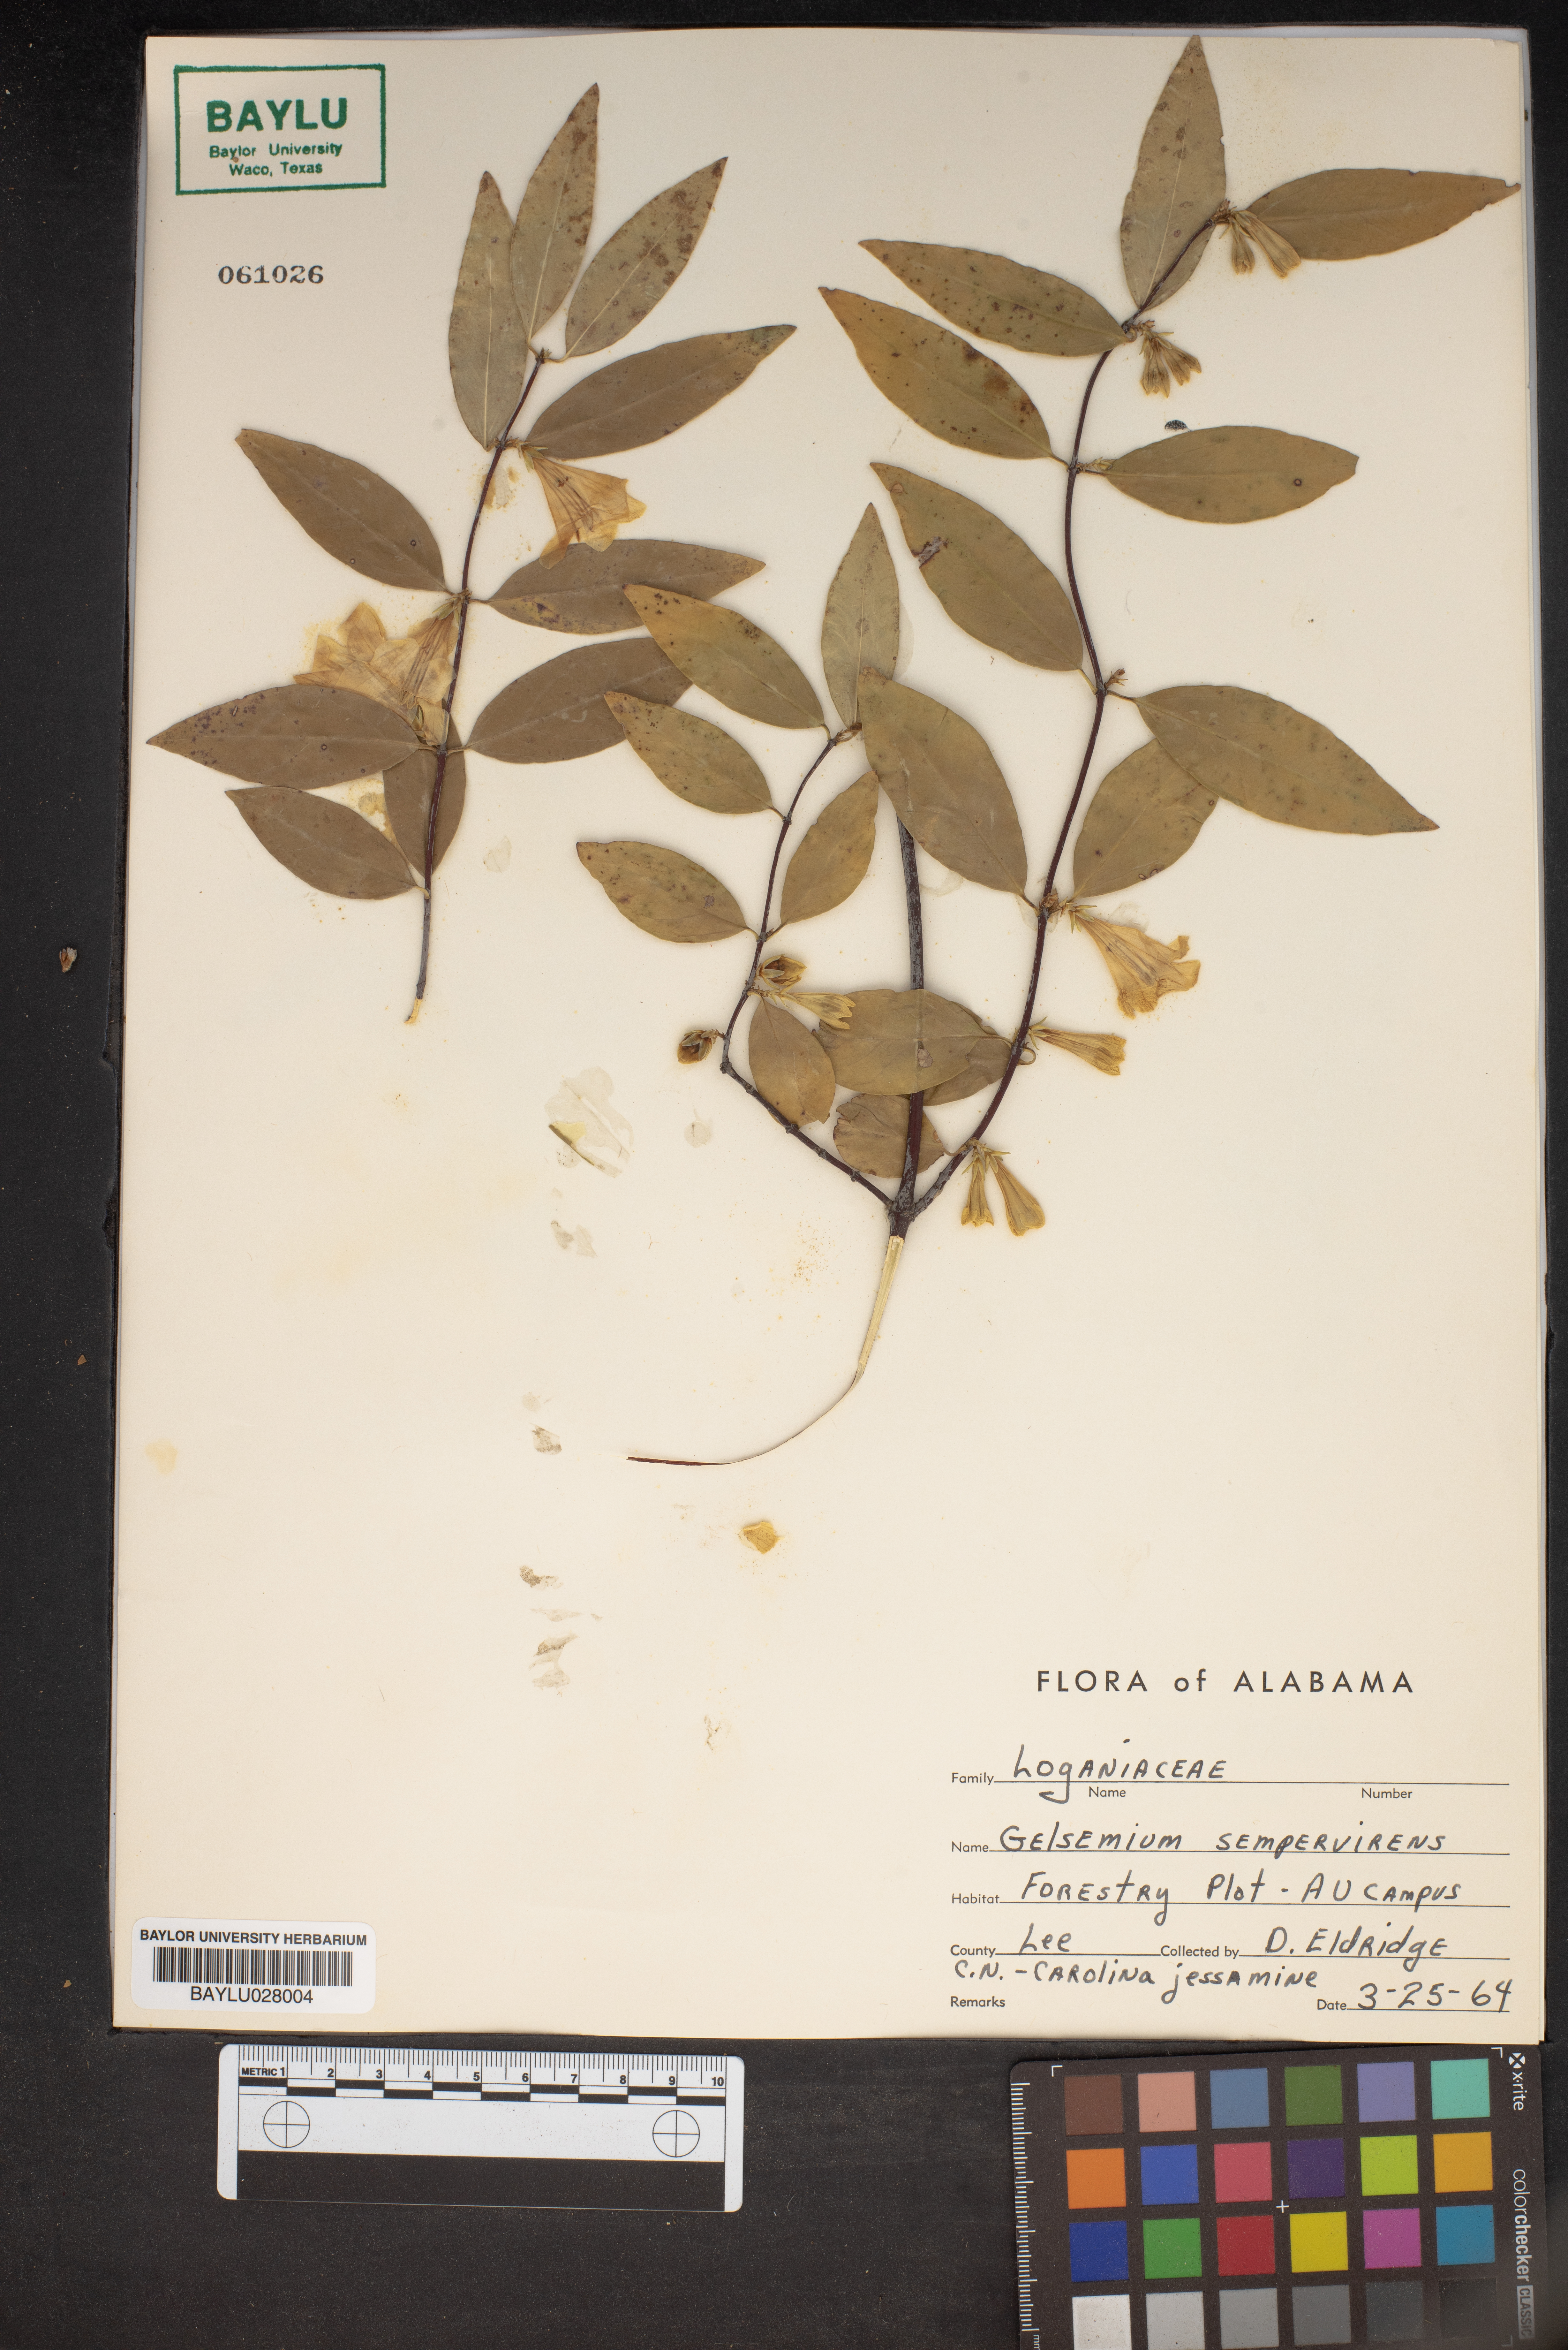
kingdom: Plantae
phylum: Tracheophyta
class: Magnoliopsida
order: Gentianales
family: Gelsemiaceae
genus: Gelsemium
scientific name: Gelsemium sempervirens
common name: Carolina-jasmine
